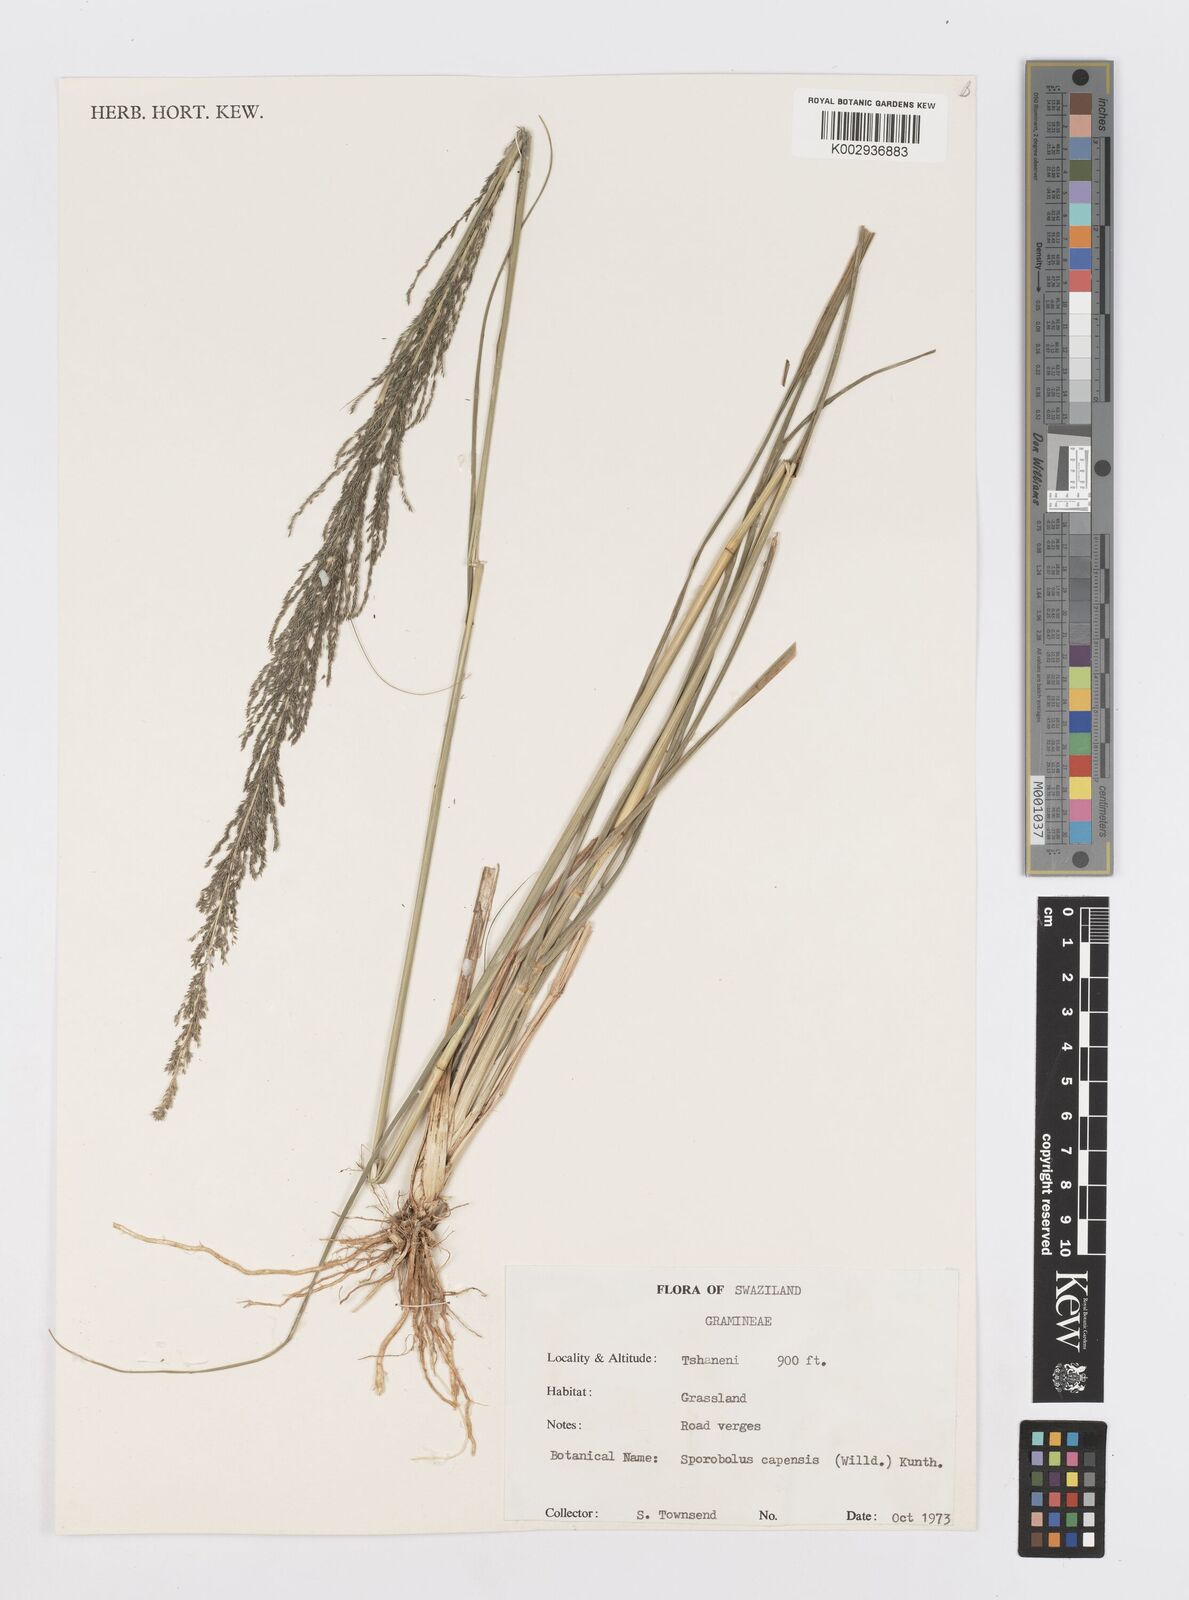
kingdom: Plantae
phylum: Tracheophyta
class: Liliopsida
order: Poales
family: Poaceae
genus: Sporobolus
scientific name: Sporobolus africanus
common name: African dropseed
